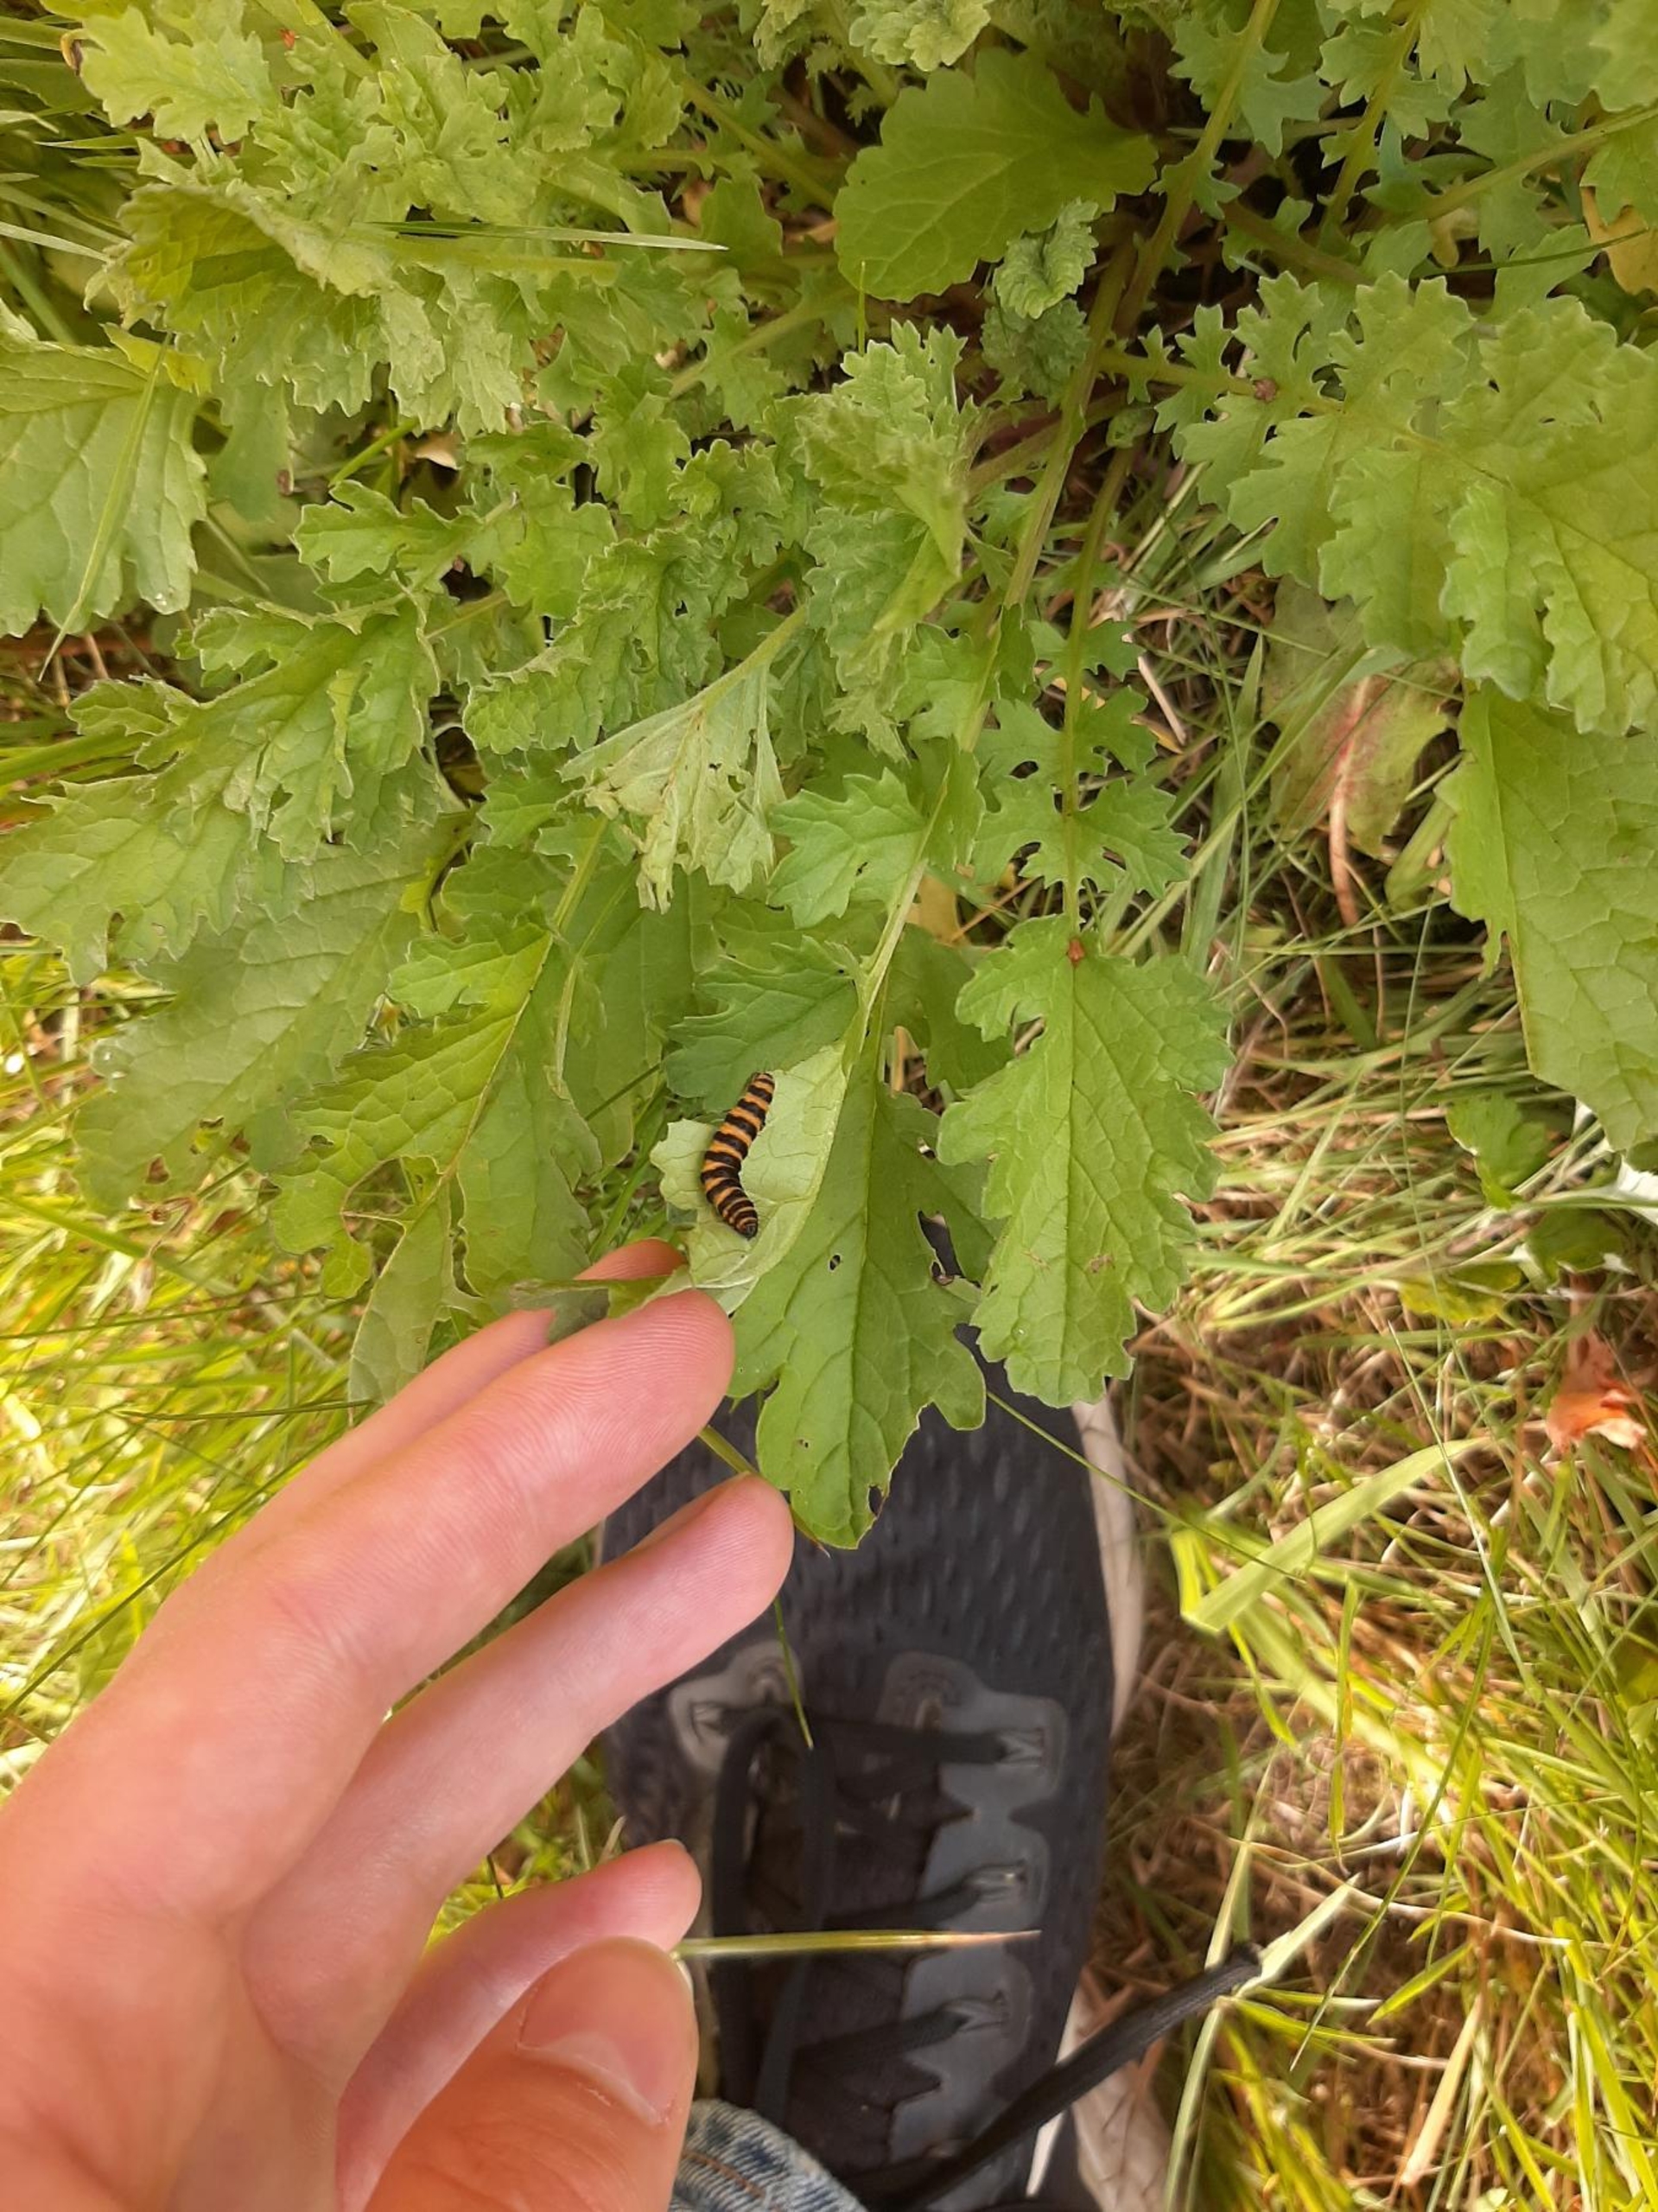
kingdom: Animalia
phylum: Arthropoda
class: Insecta
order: Lepidoptera
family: Erebidae
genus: Tyria
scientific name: Tyria jacobaeae
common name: Blodplet
